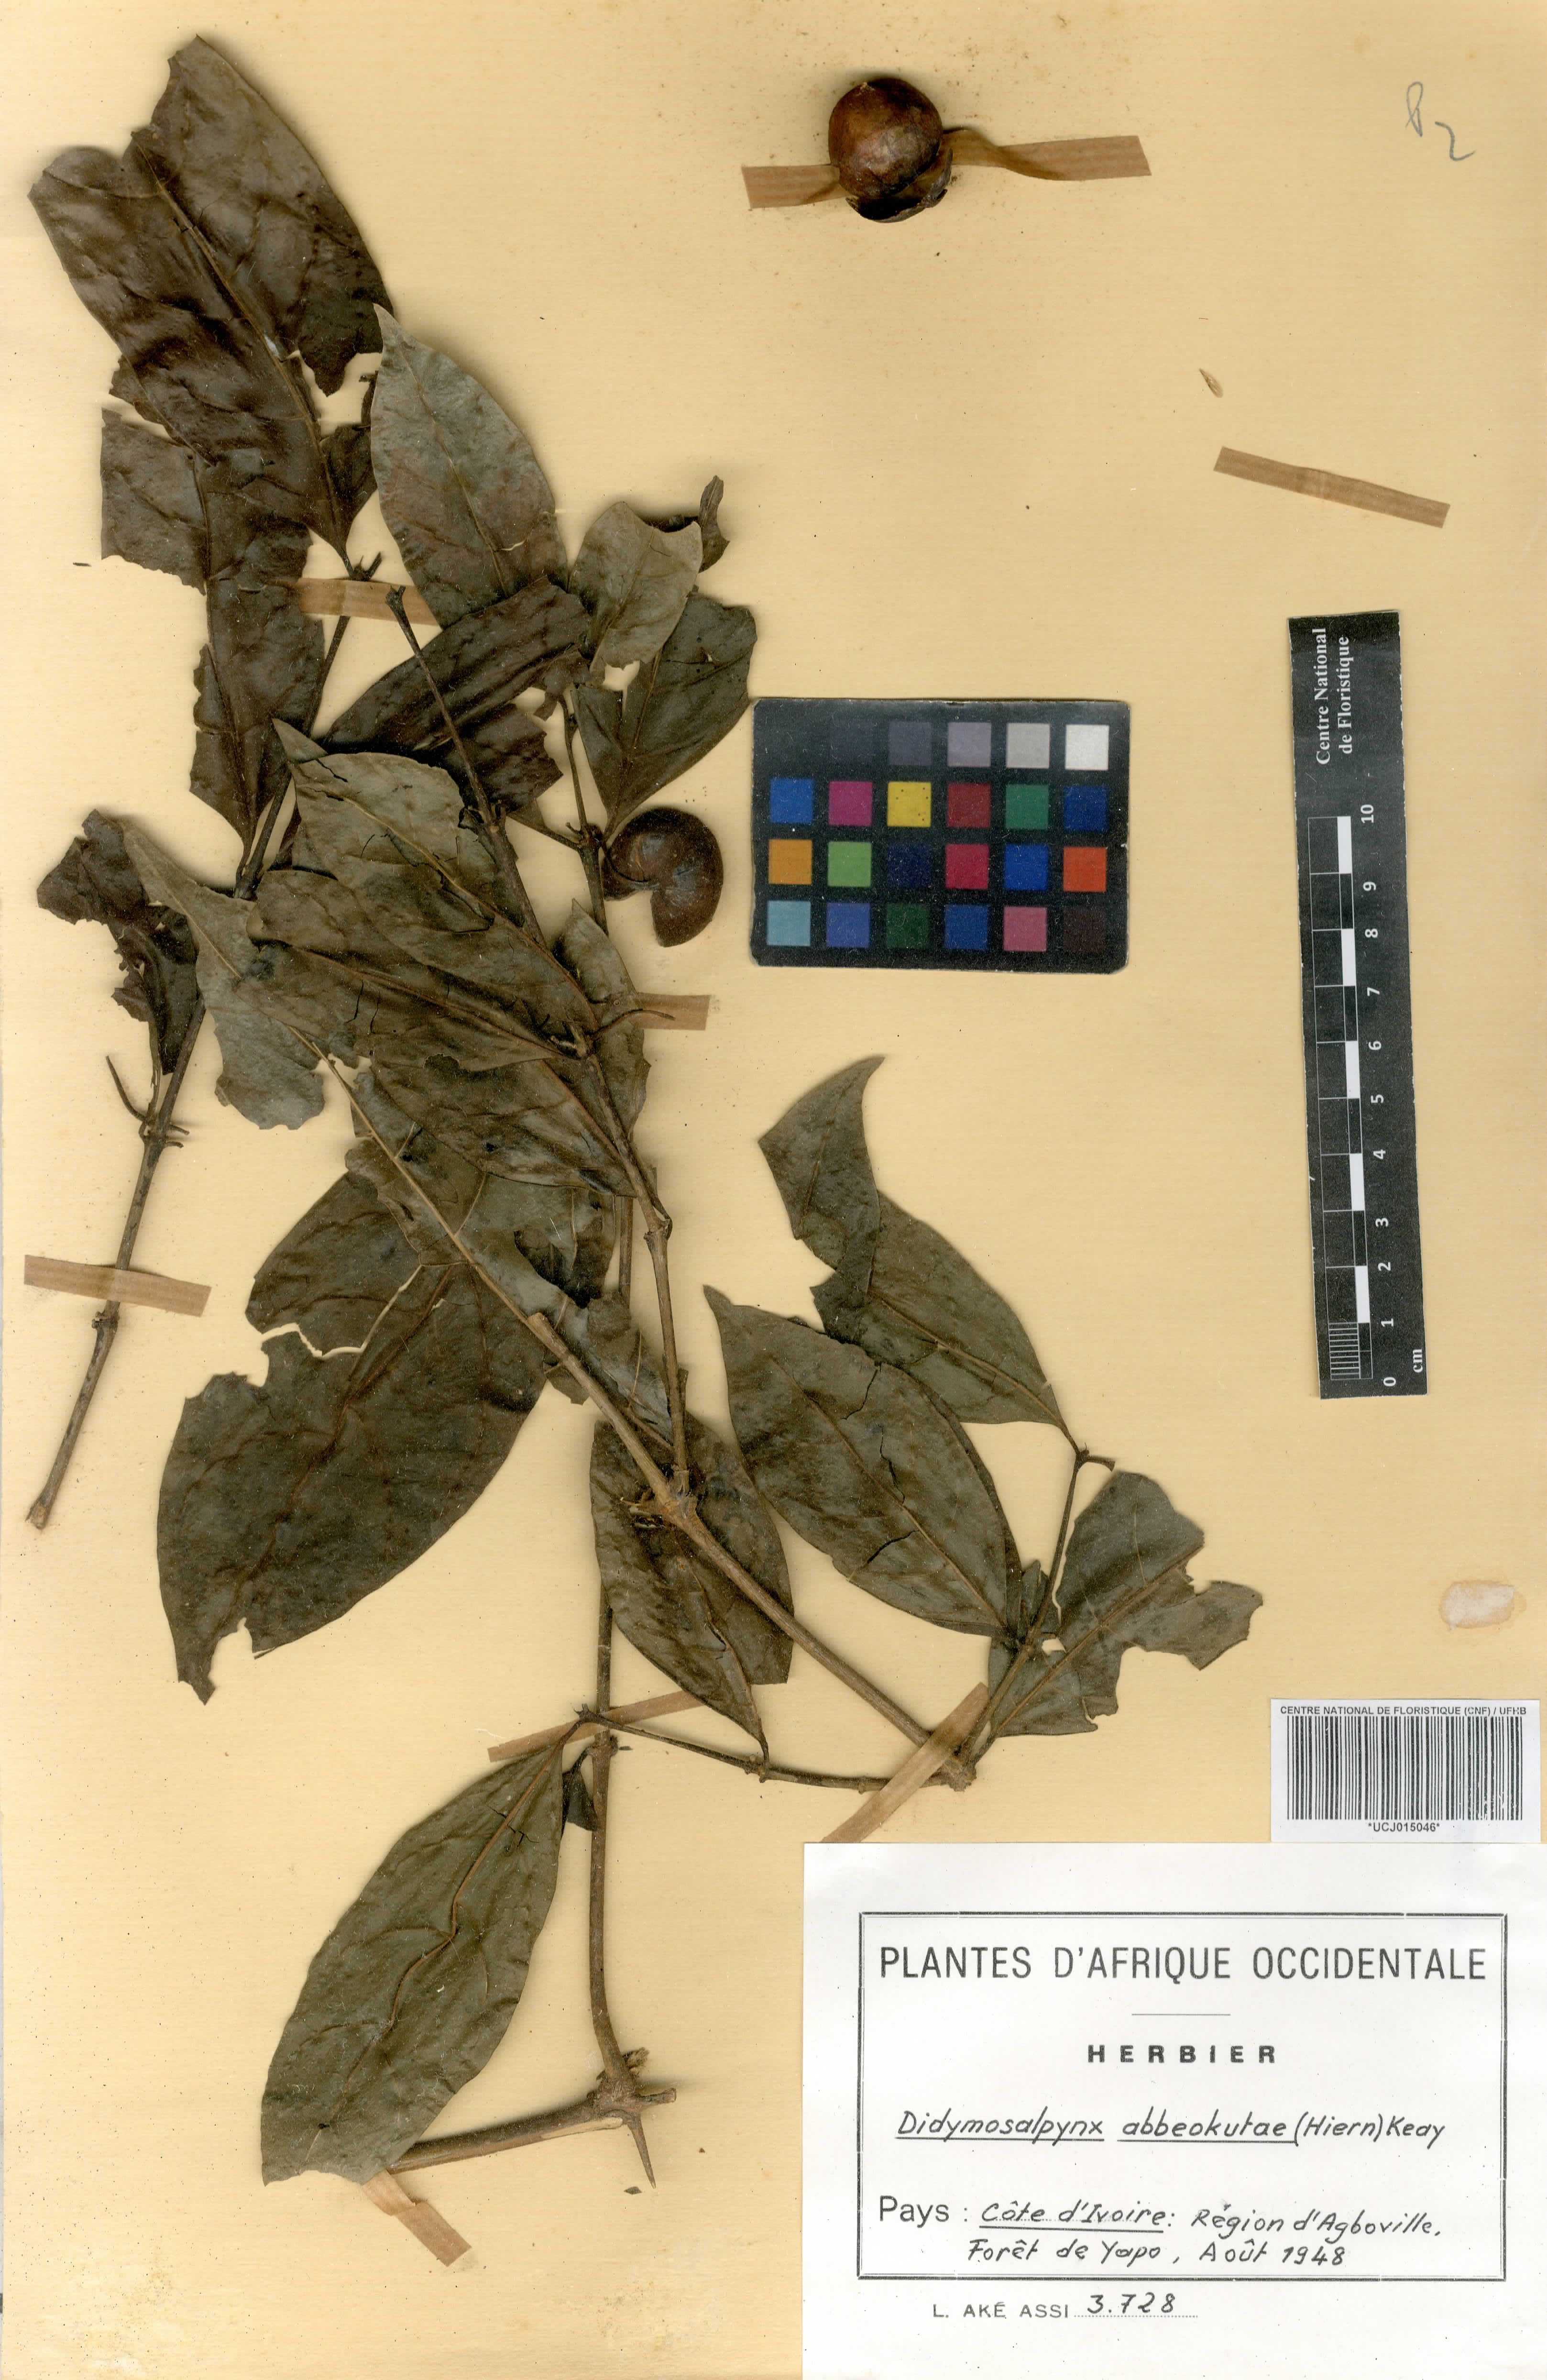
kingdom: Plantae
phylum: Tracheophyta
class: Magnoliopsida
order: Gentianales
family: Rubiaceae
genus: Didymosalpinx
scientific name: Didymosalpinx abbeokutae
